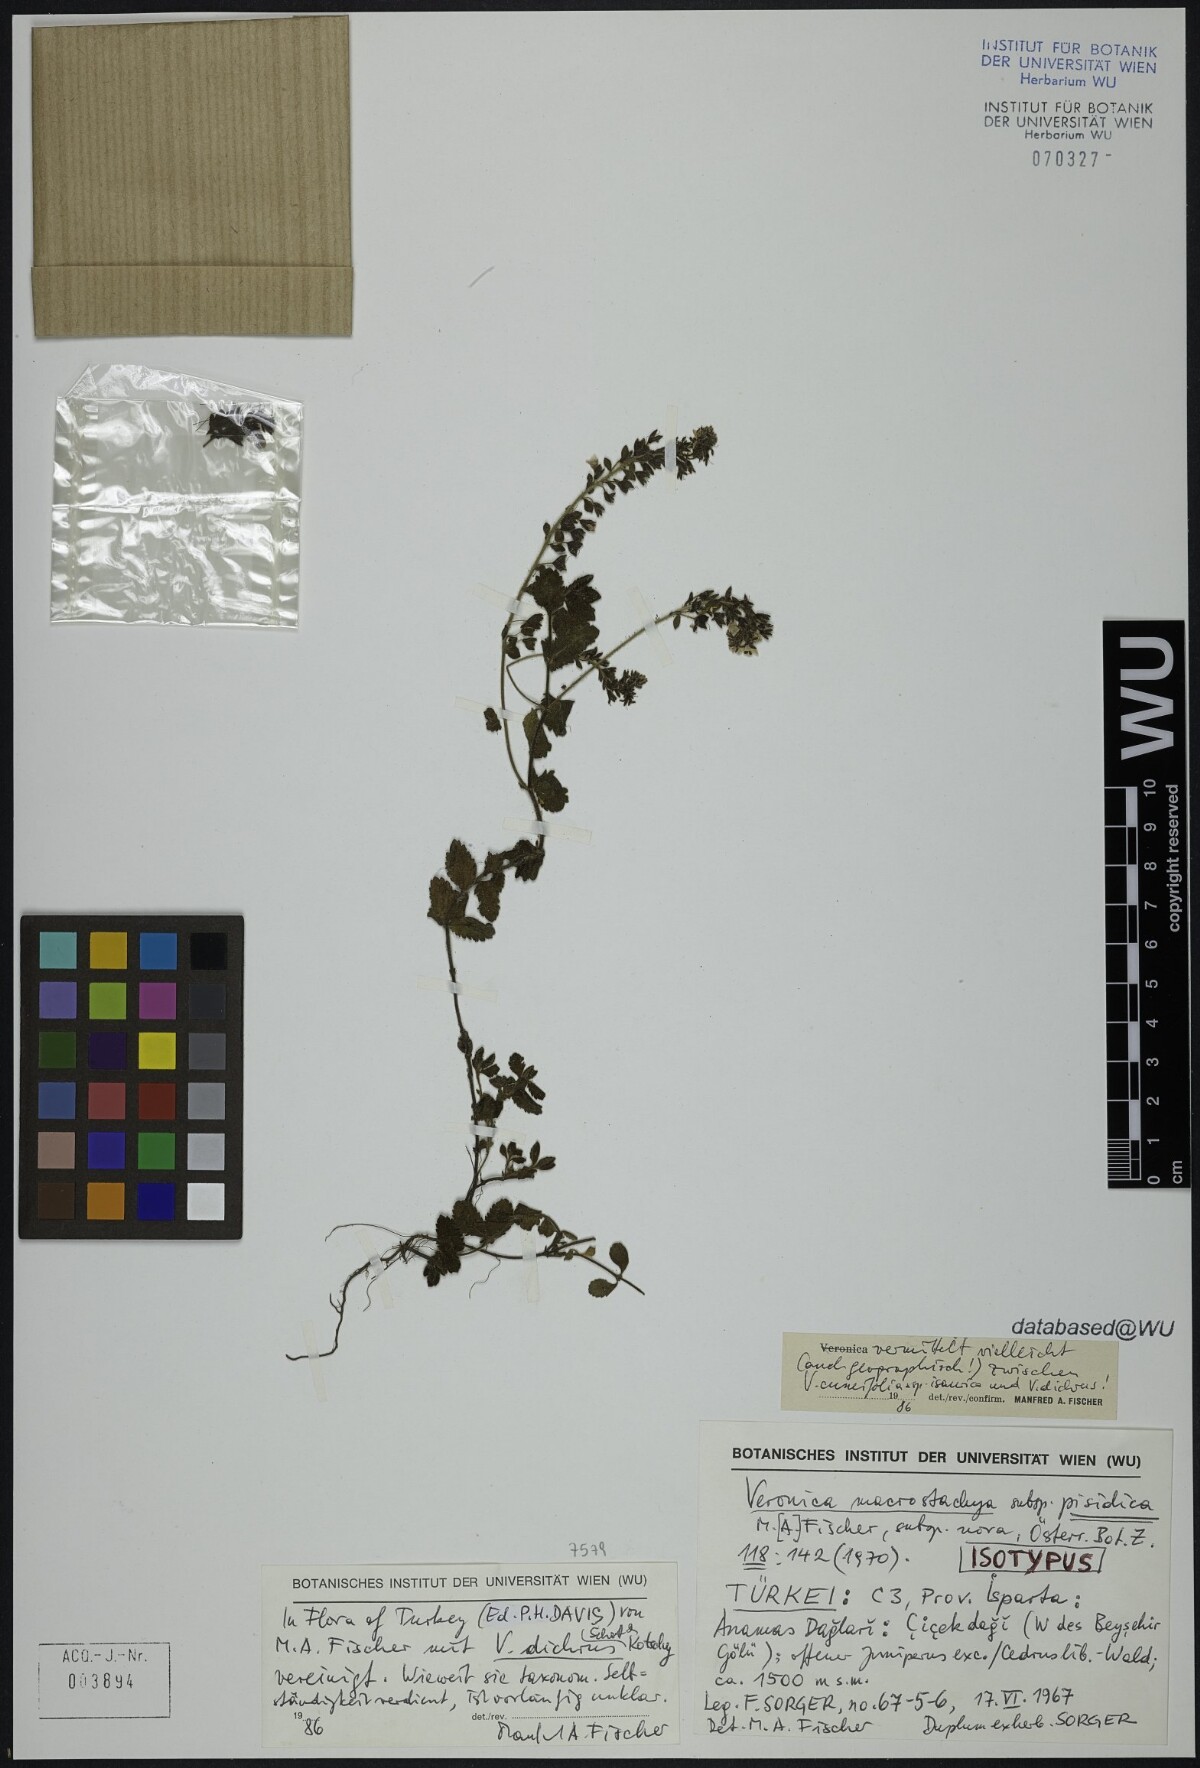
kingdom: Plantae
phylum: Tracheophyta
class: Magnoliopsida
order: Lamiales
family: Plantaginaceae
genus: Veronica
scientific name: Veronica dichrus
